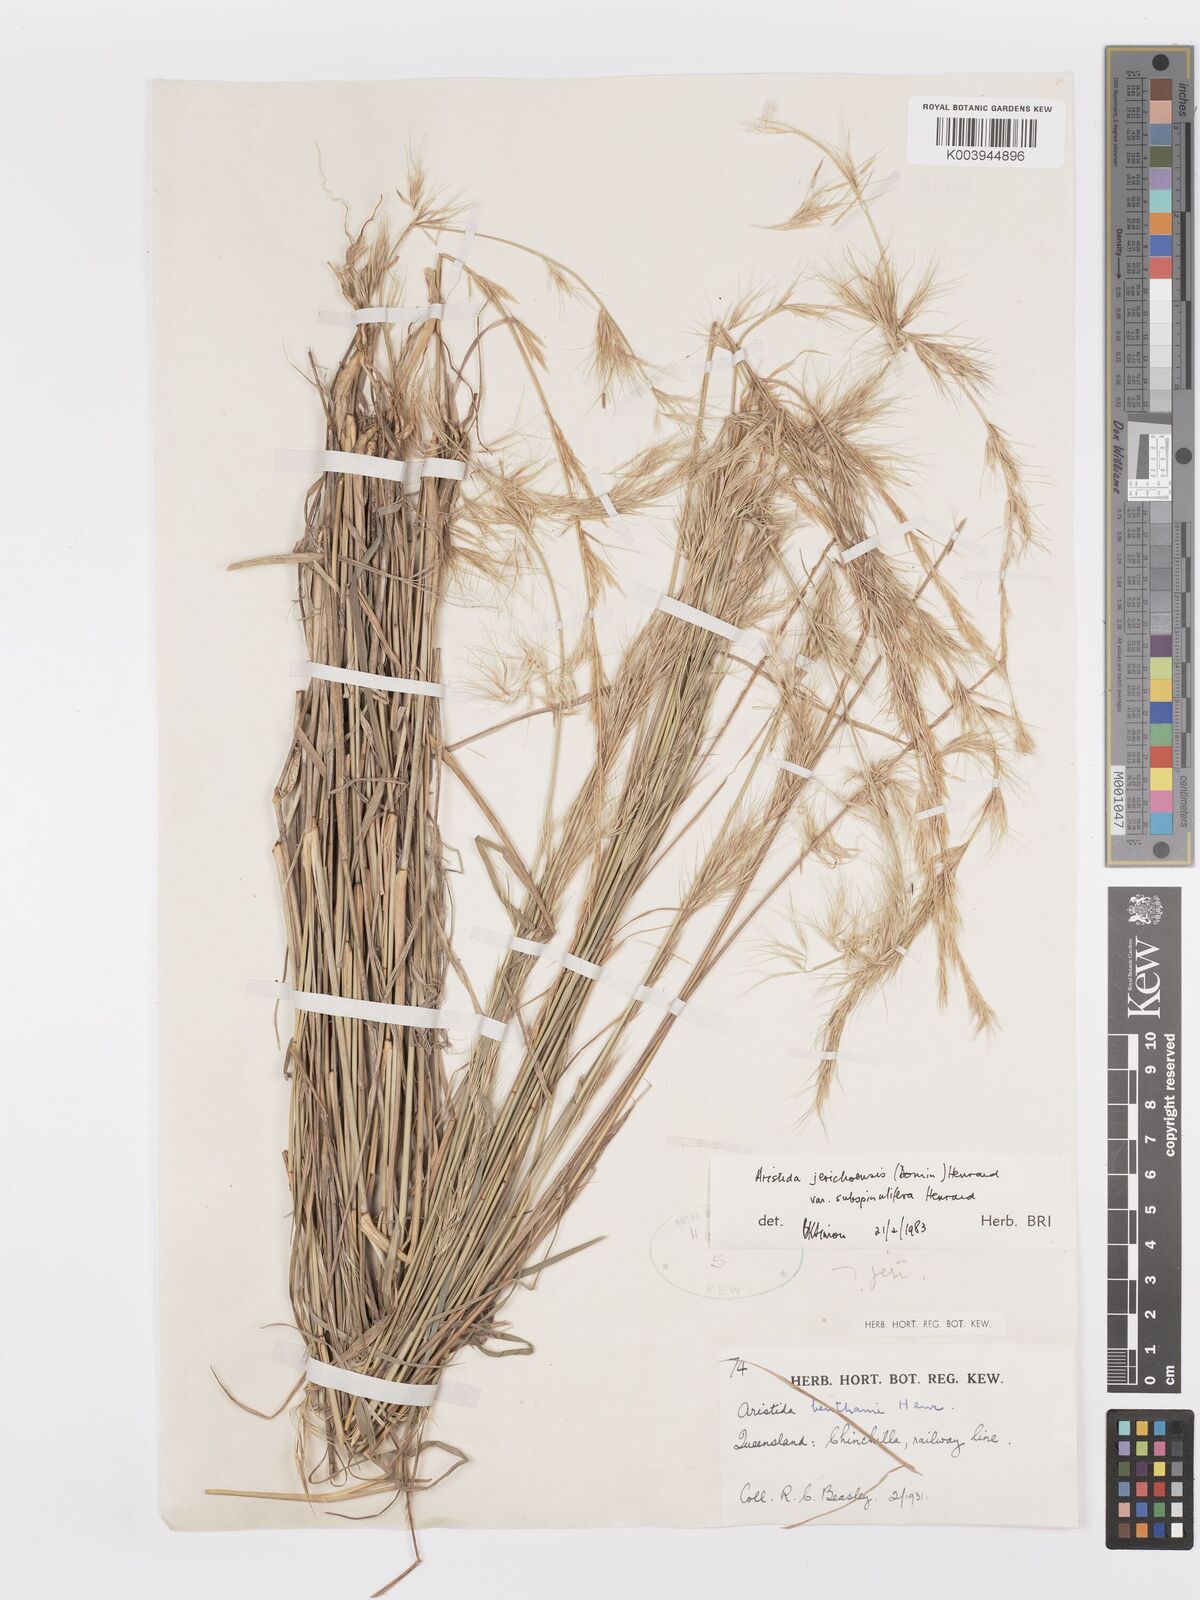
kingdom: Plantae
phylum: Tracheophyta
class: Liliopsida
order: Poales
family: Poaceae
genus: Aristida
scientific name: Aristida jerichoensis
